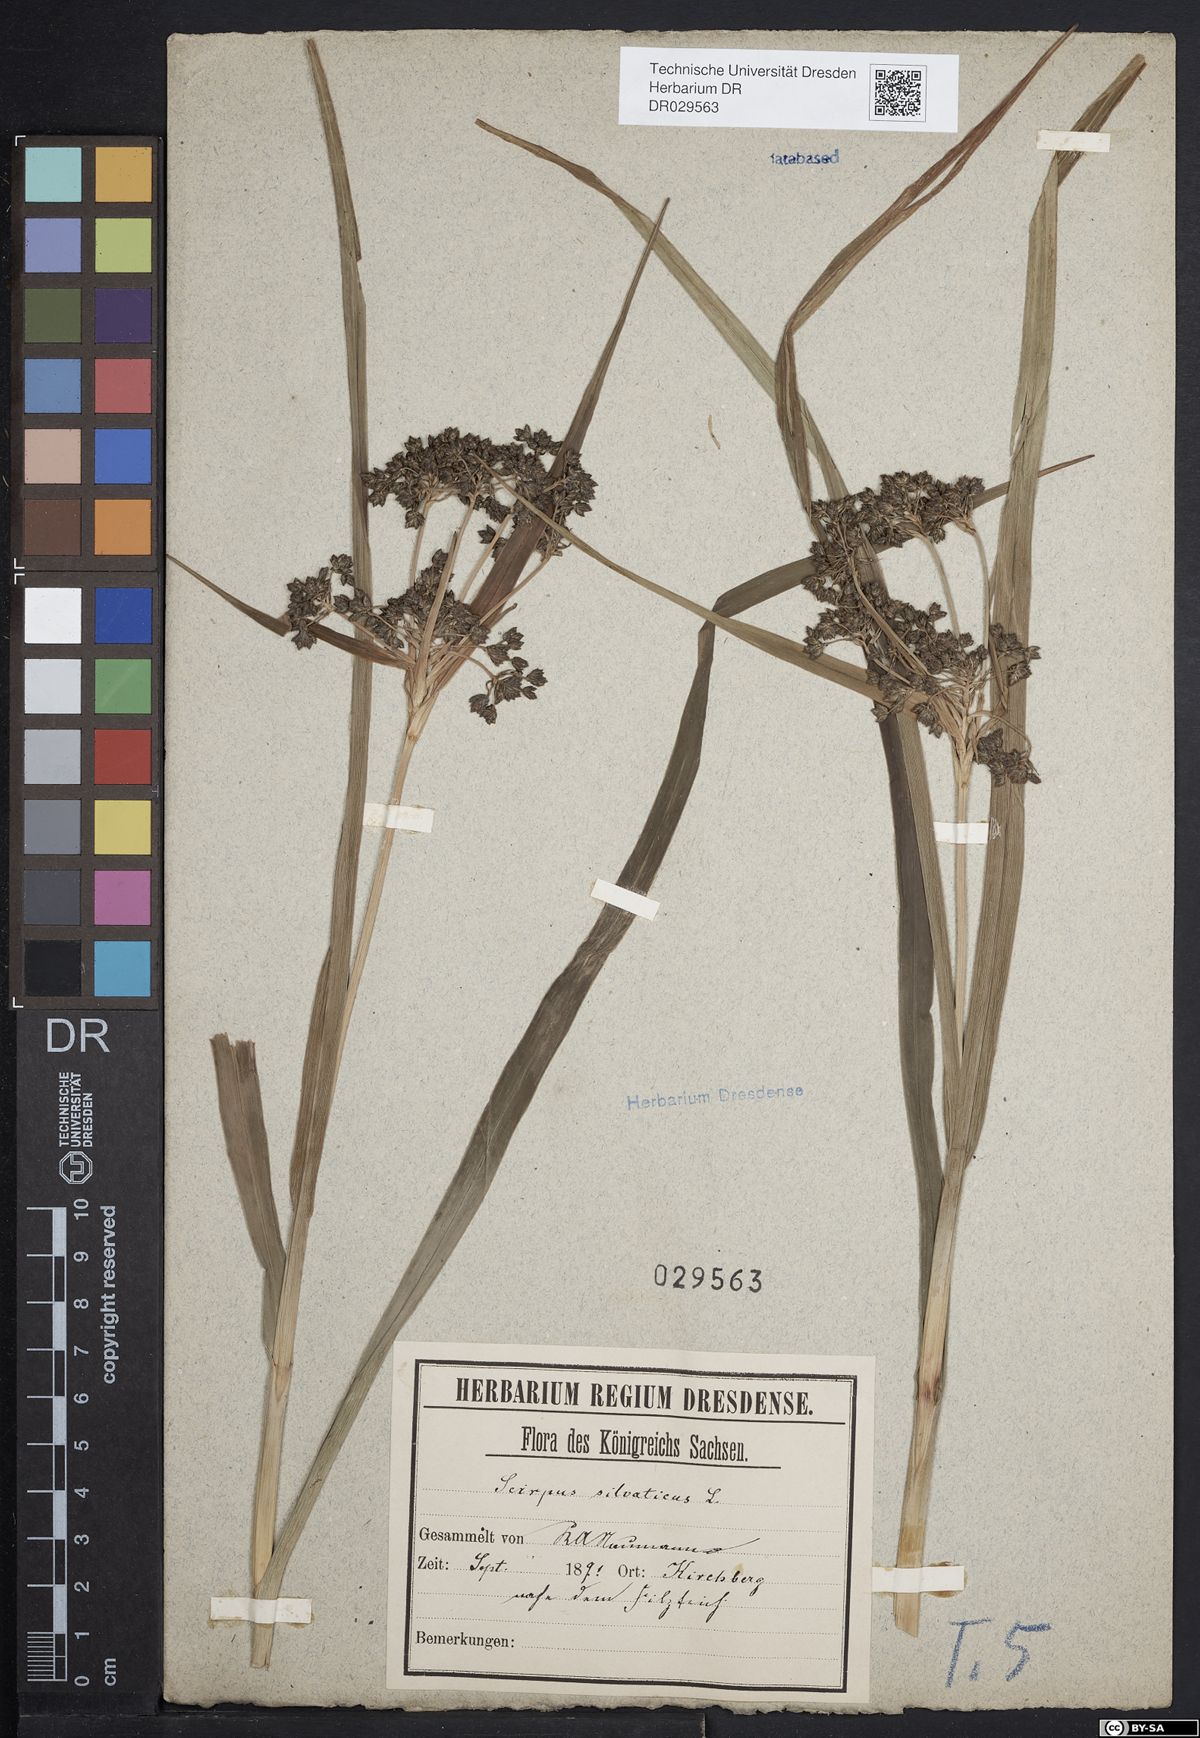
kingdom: Plantae
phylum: Tracheophyta
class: Liliopsida
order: Poales
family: Cyperaceae
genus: Scirpus
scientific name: Scirpus sylvaticus
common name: Wood club-rush
